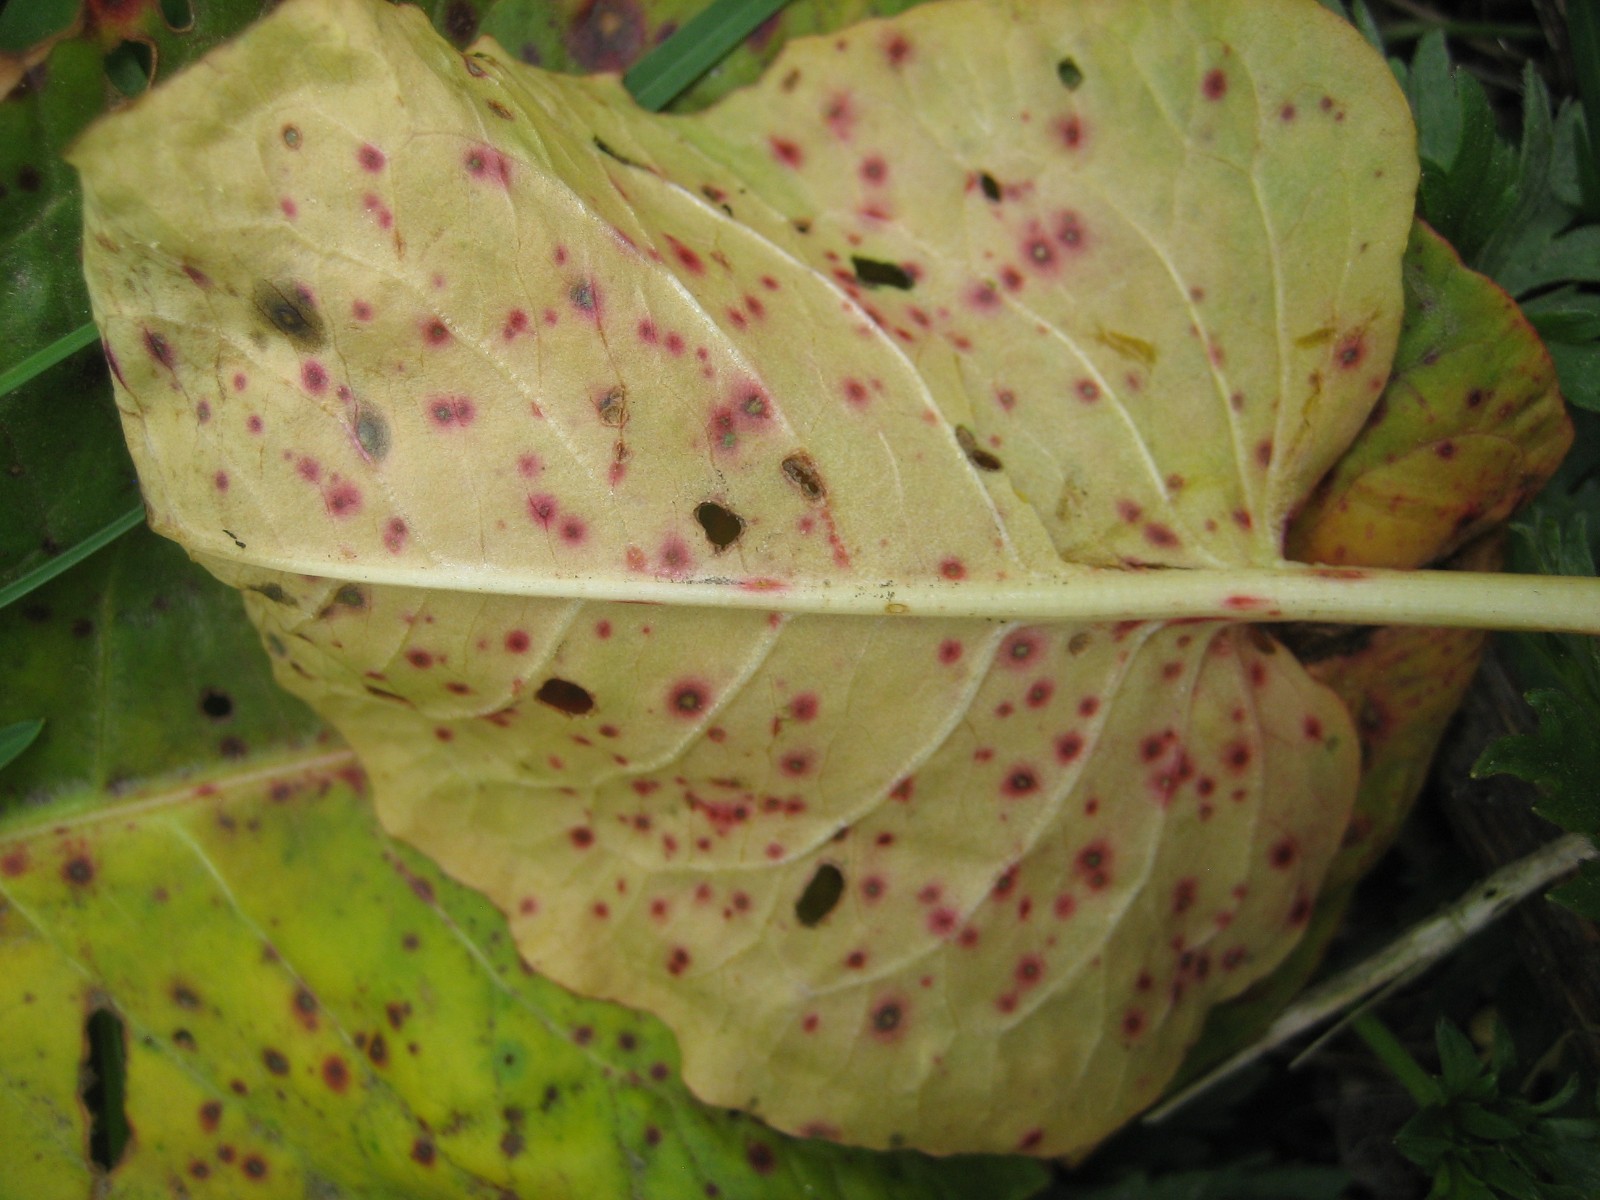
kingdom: Fungi
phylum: Ascomycota
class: Dothideomycetes
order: Capnodiales
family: Mycosphaerellaceae
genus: Ramularia
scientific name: Ramularia
